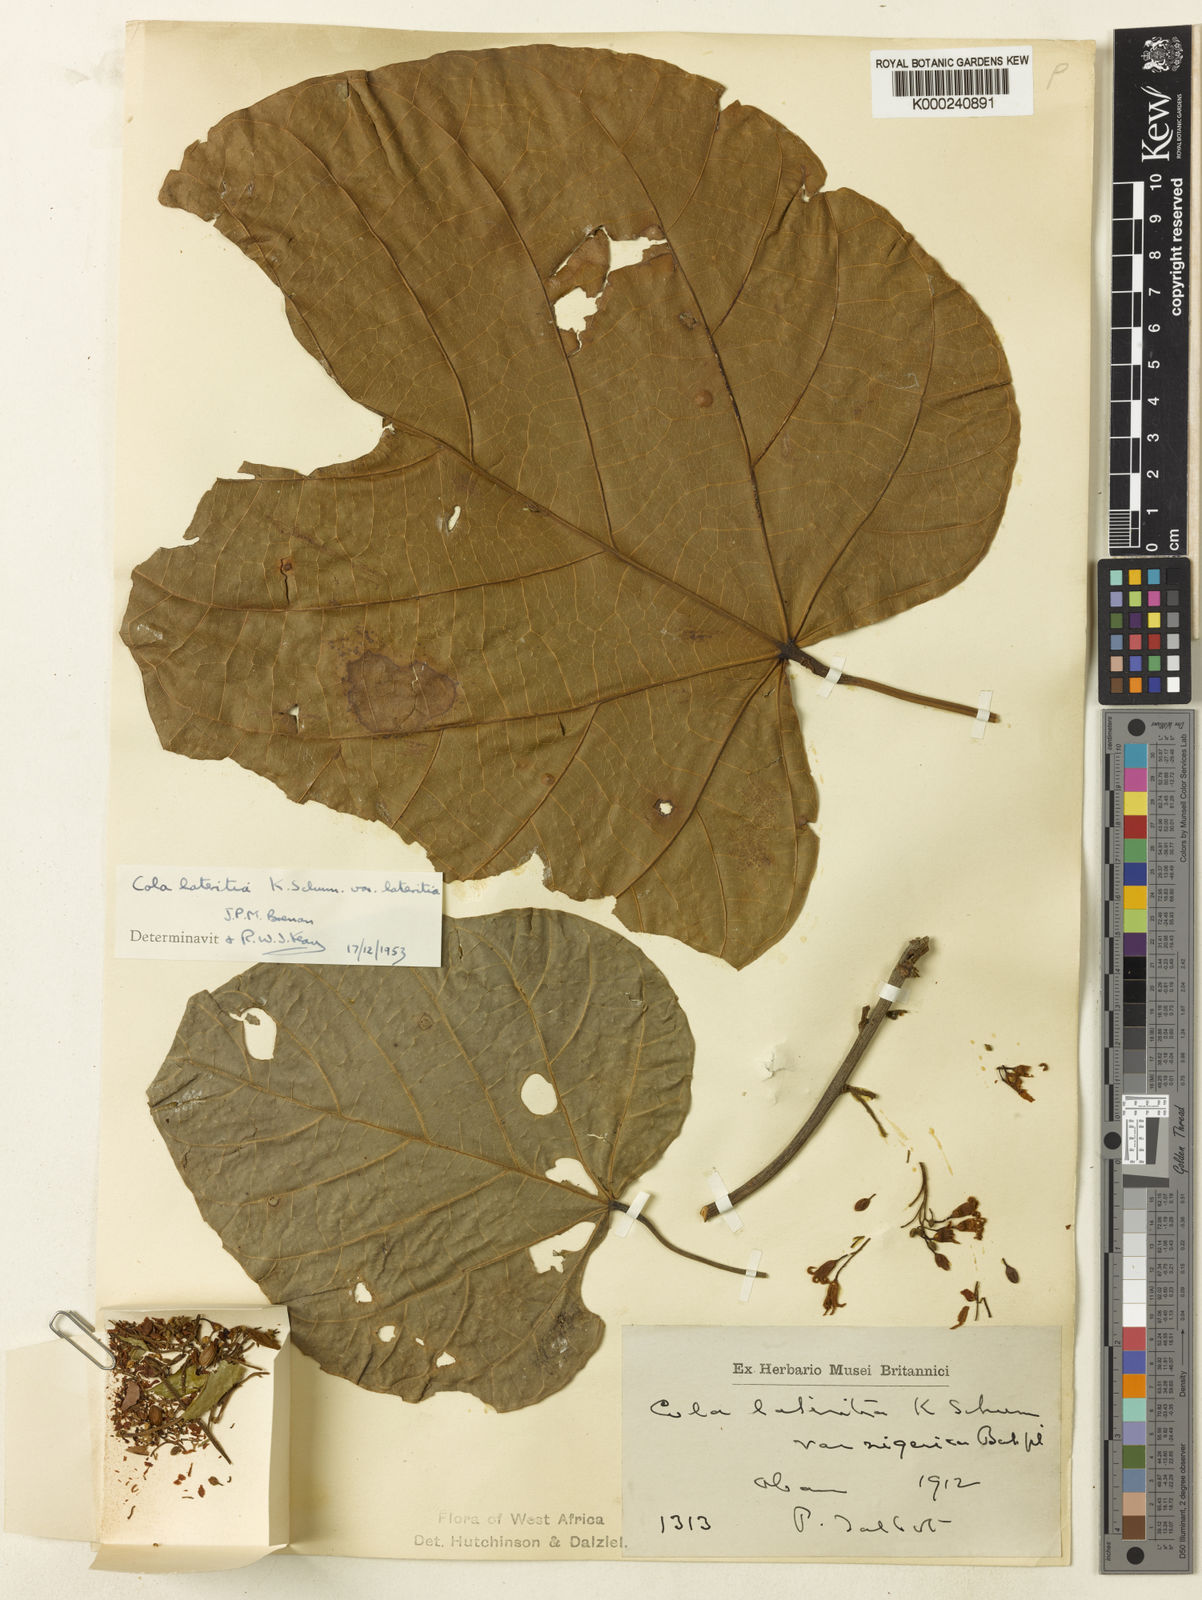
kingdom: Plantae
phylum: Tracheophyta
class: Magnoliopsida
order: Malvales
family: Malvaceae
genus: Cola
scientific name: Cola lateritia
